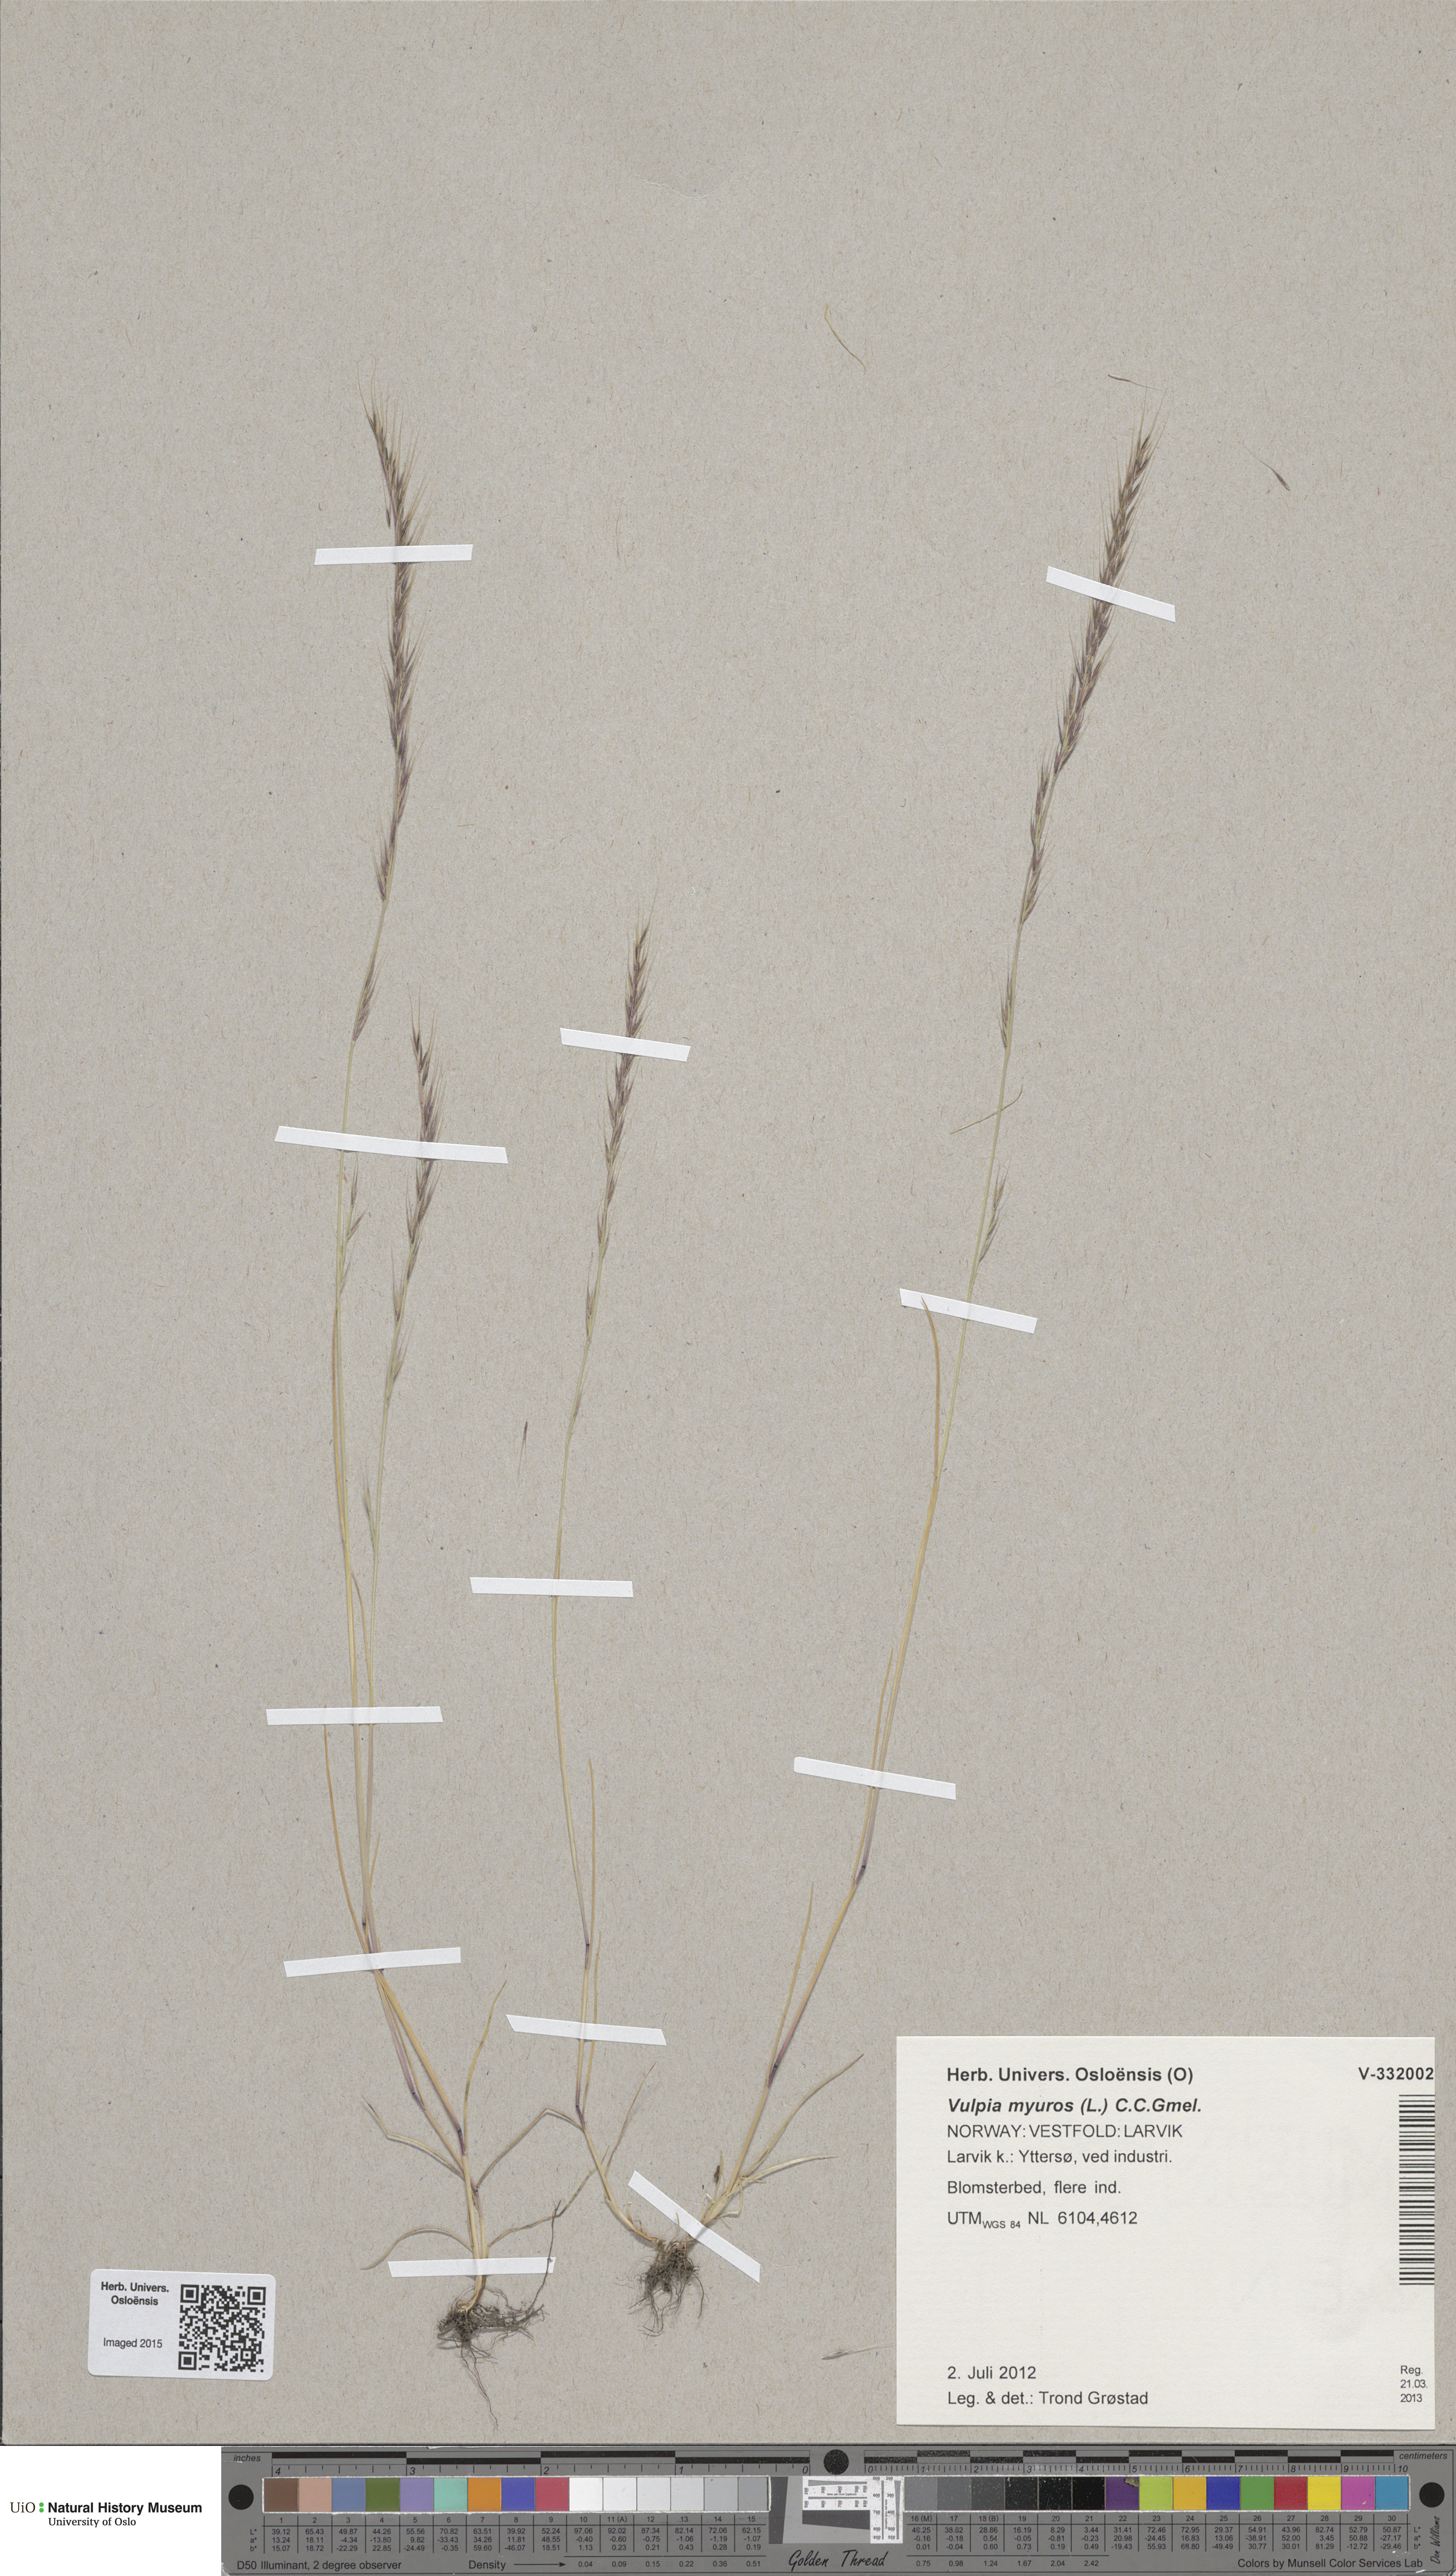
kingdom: Plantae
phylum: Tracheophyta
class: Liliopsida
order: Poales
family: Poaceae
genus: Festuca
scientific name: Festuca myuros
